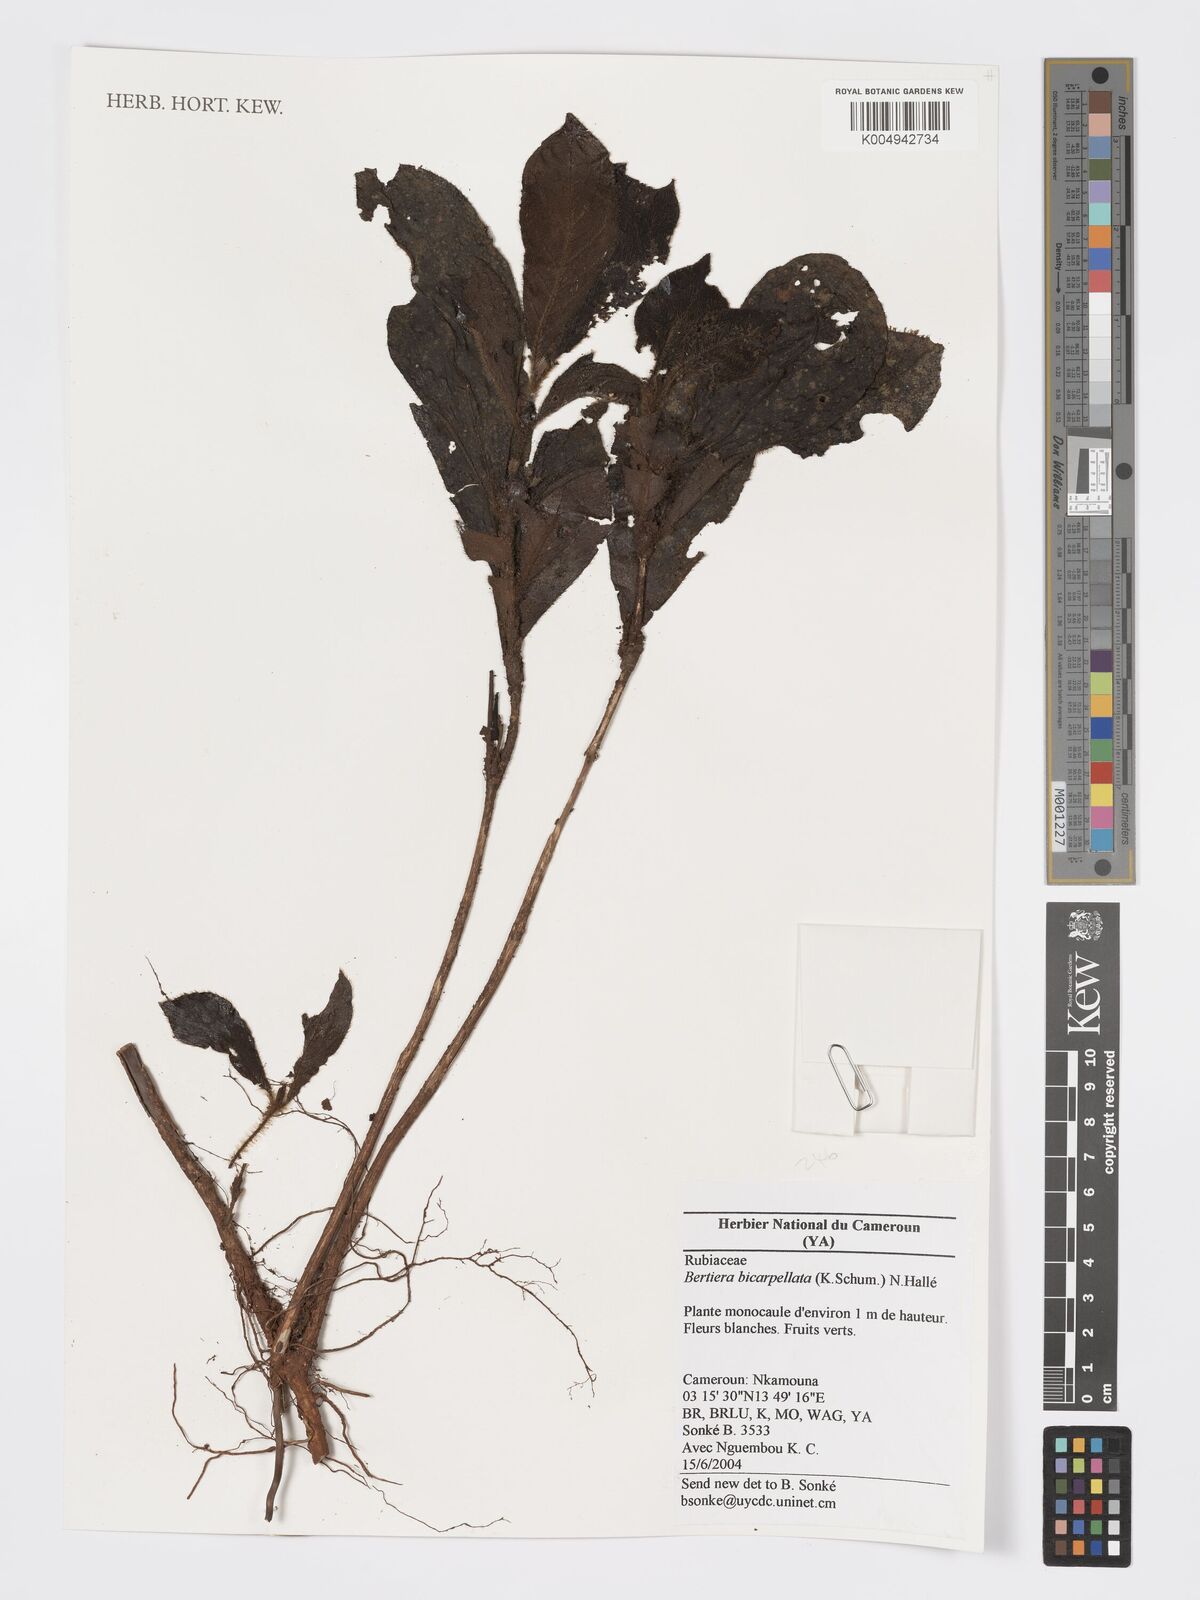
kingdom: Plantae
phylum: Tracheophyta
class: Magnoliopsida
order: Gentianales
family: Rubiaceae
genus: Bertiera
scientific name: Bertiera bicarpellata
